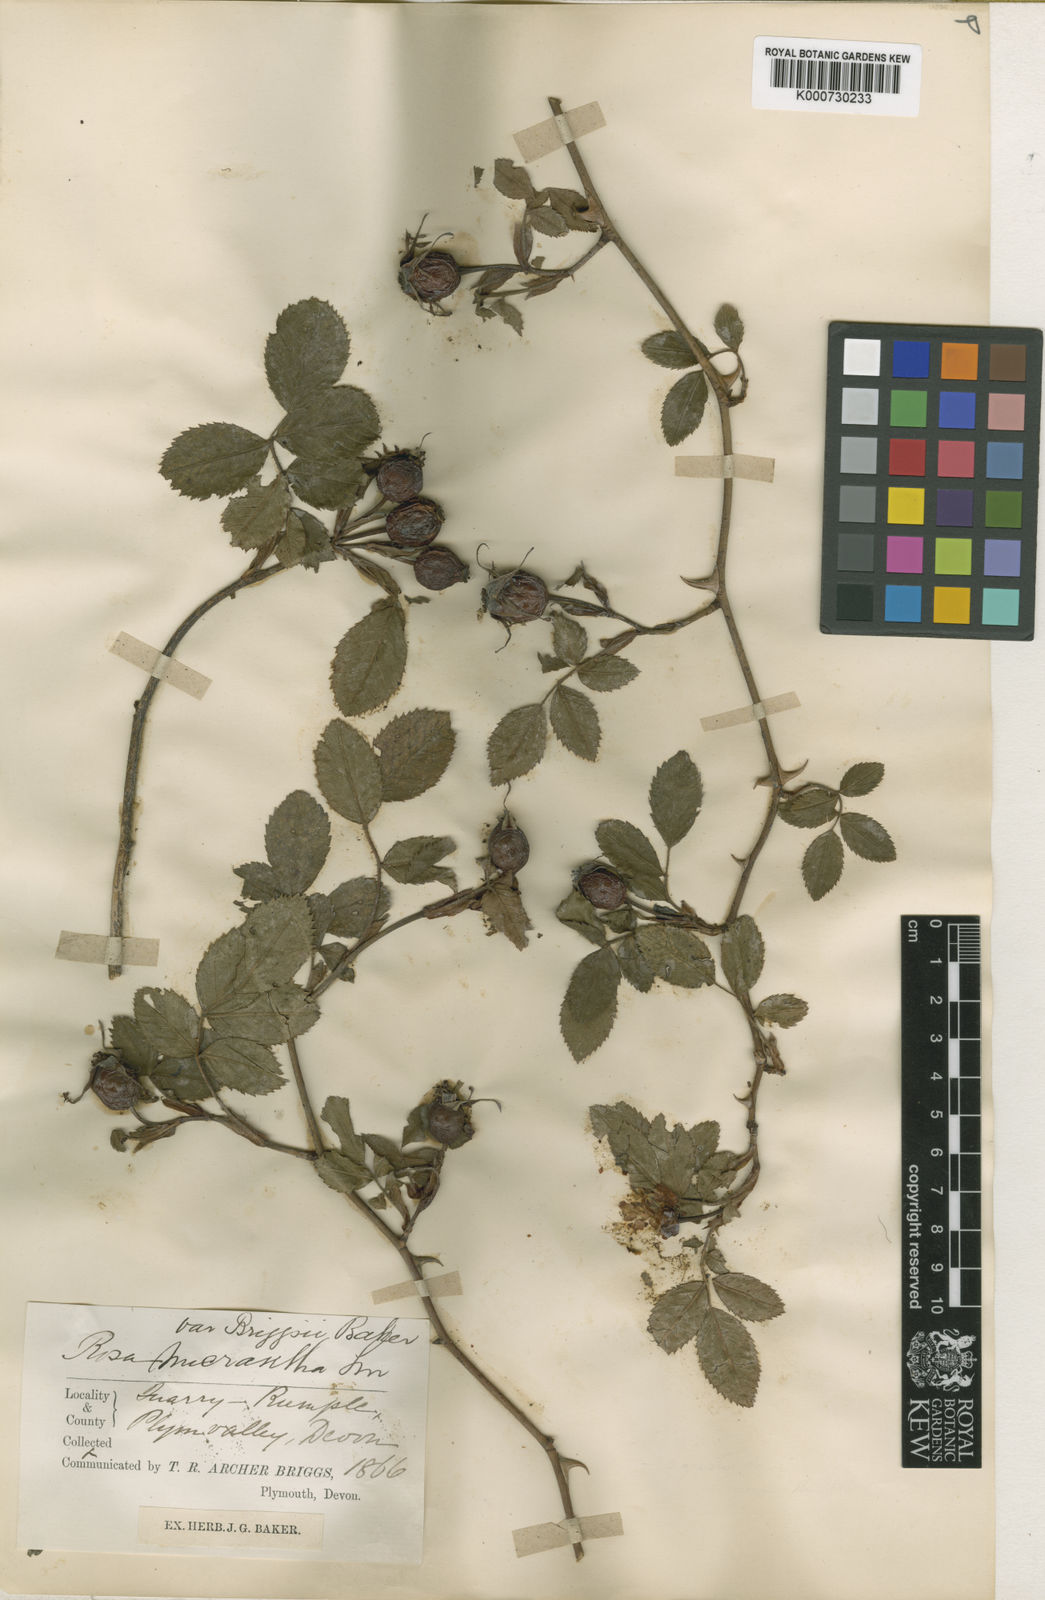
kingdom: Plantae
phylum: Tracheophyta
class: Magnoliopsida
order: Rosales
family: Rosaceae
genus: Rosa
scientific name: Rosa micrantha
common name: Small-flowered sweet-briar
